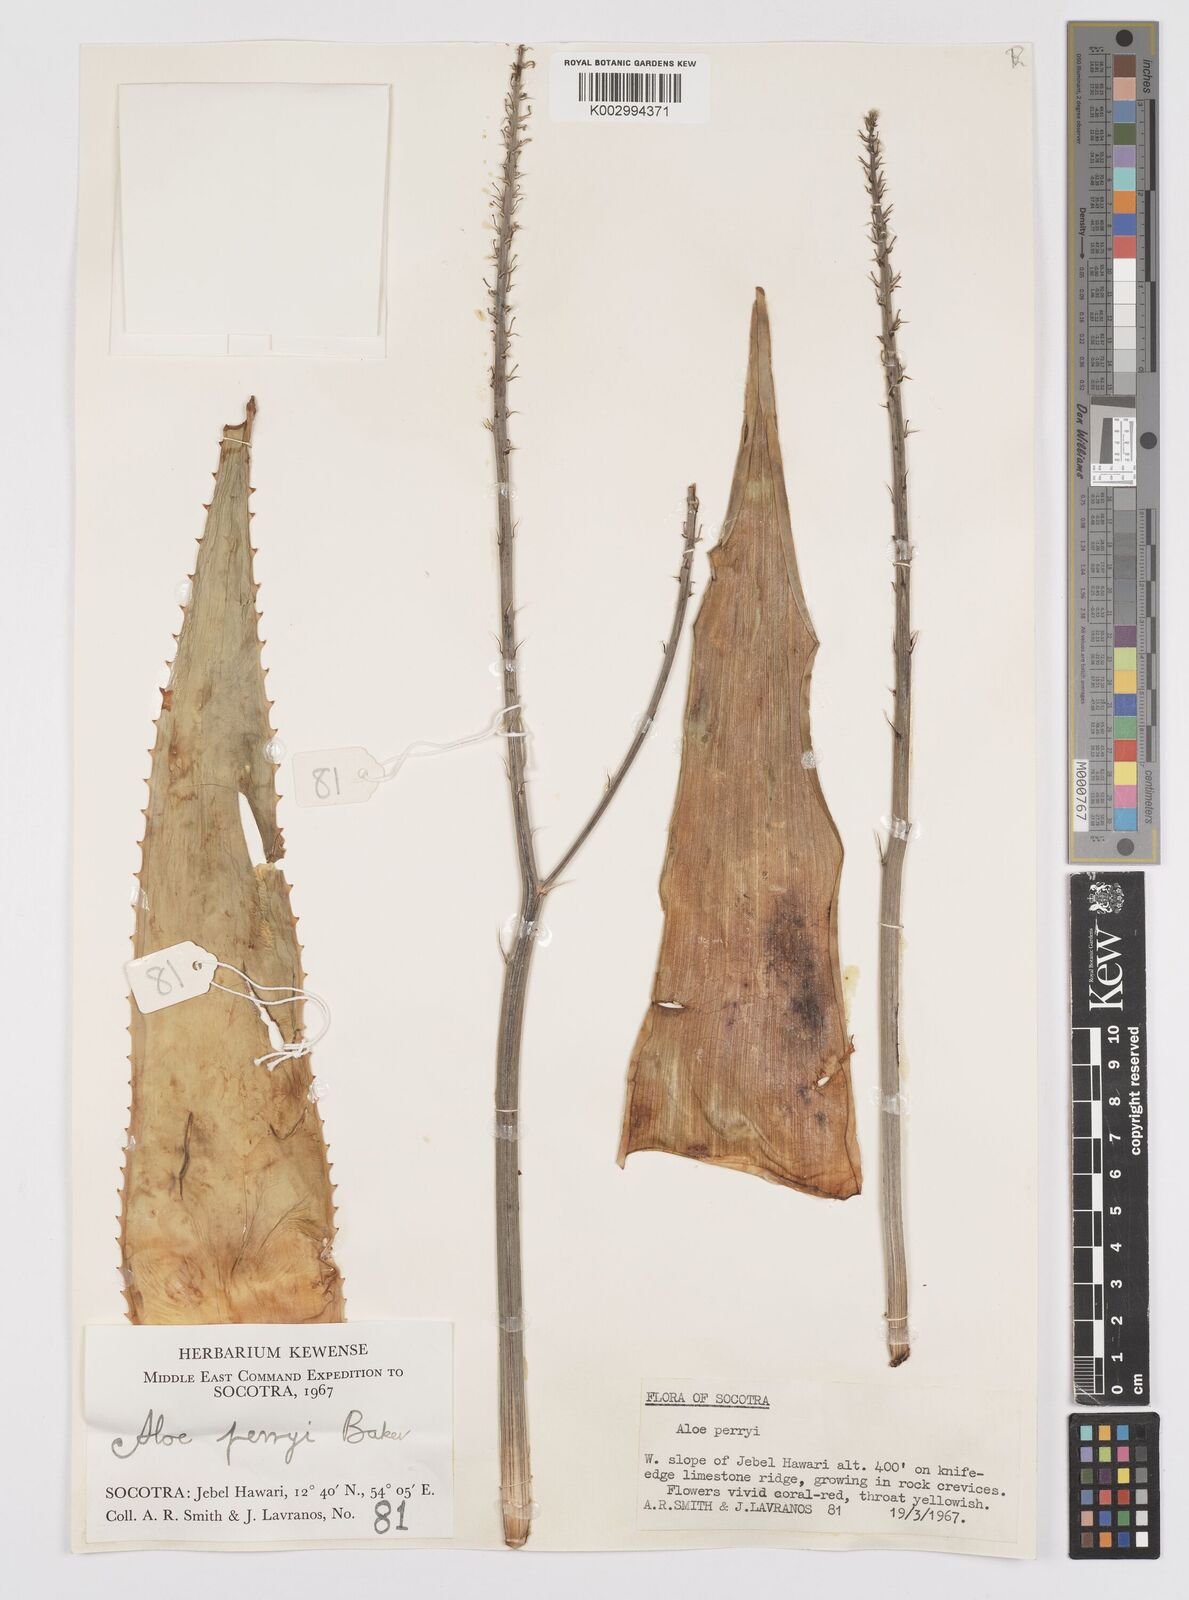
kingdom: Plantae
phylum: Tracheophyta
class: Liliopsida
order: Asparagales
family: Asphodelaceae
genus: Aloe
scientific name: Aloe perryi
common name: Socotrine aloe
